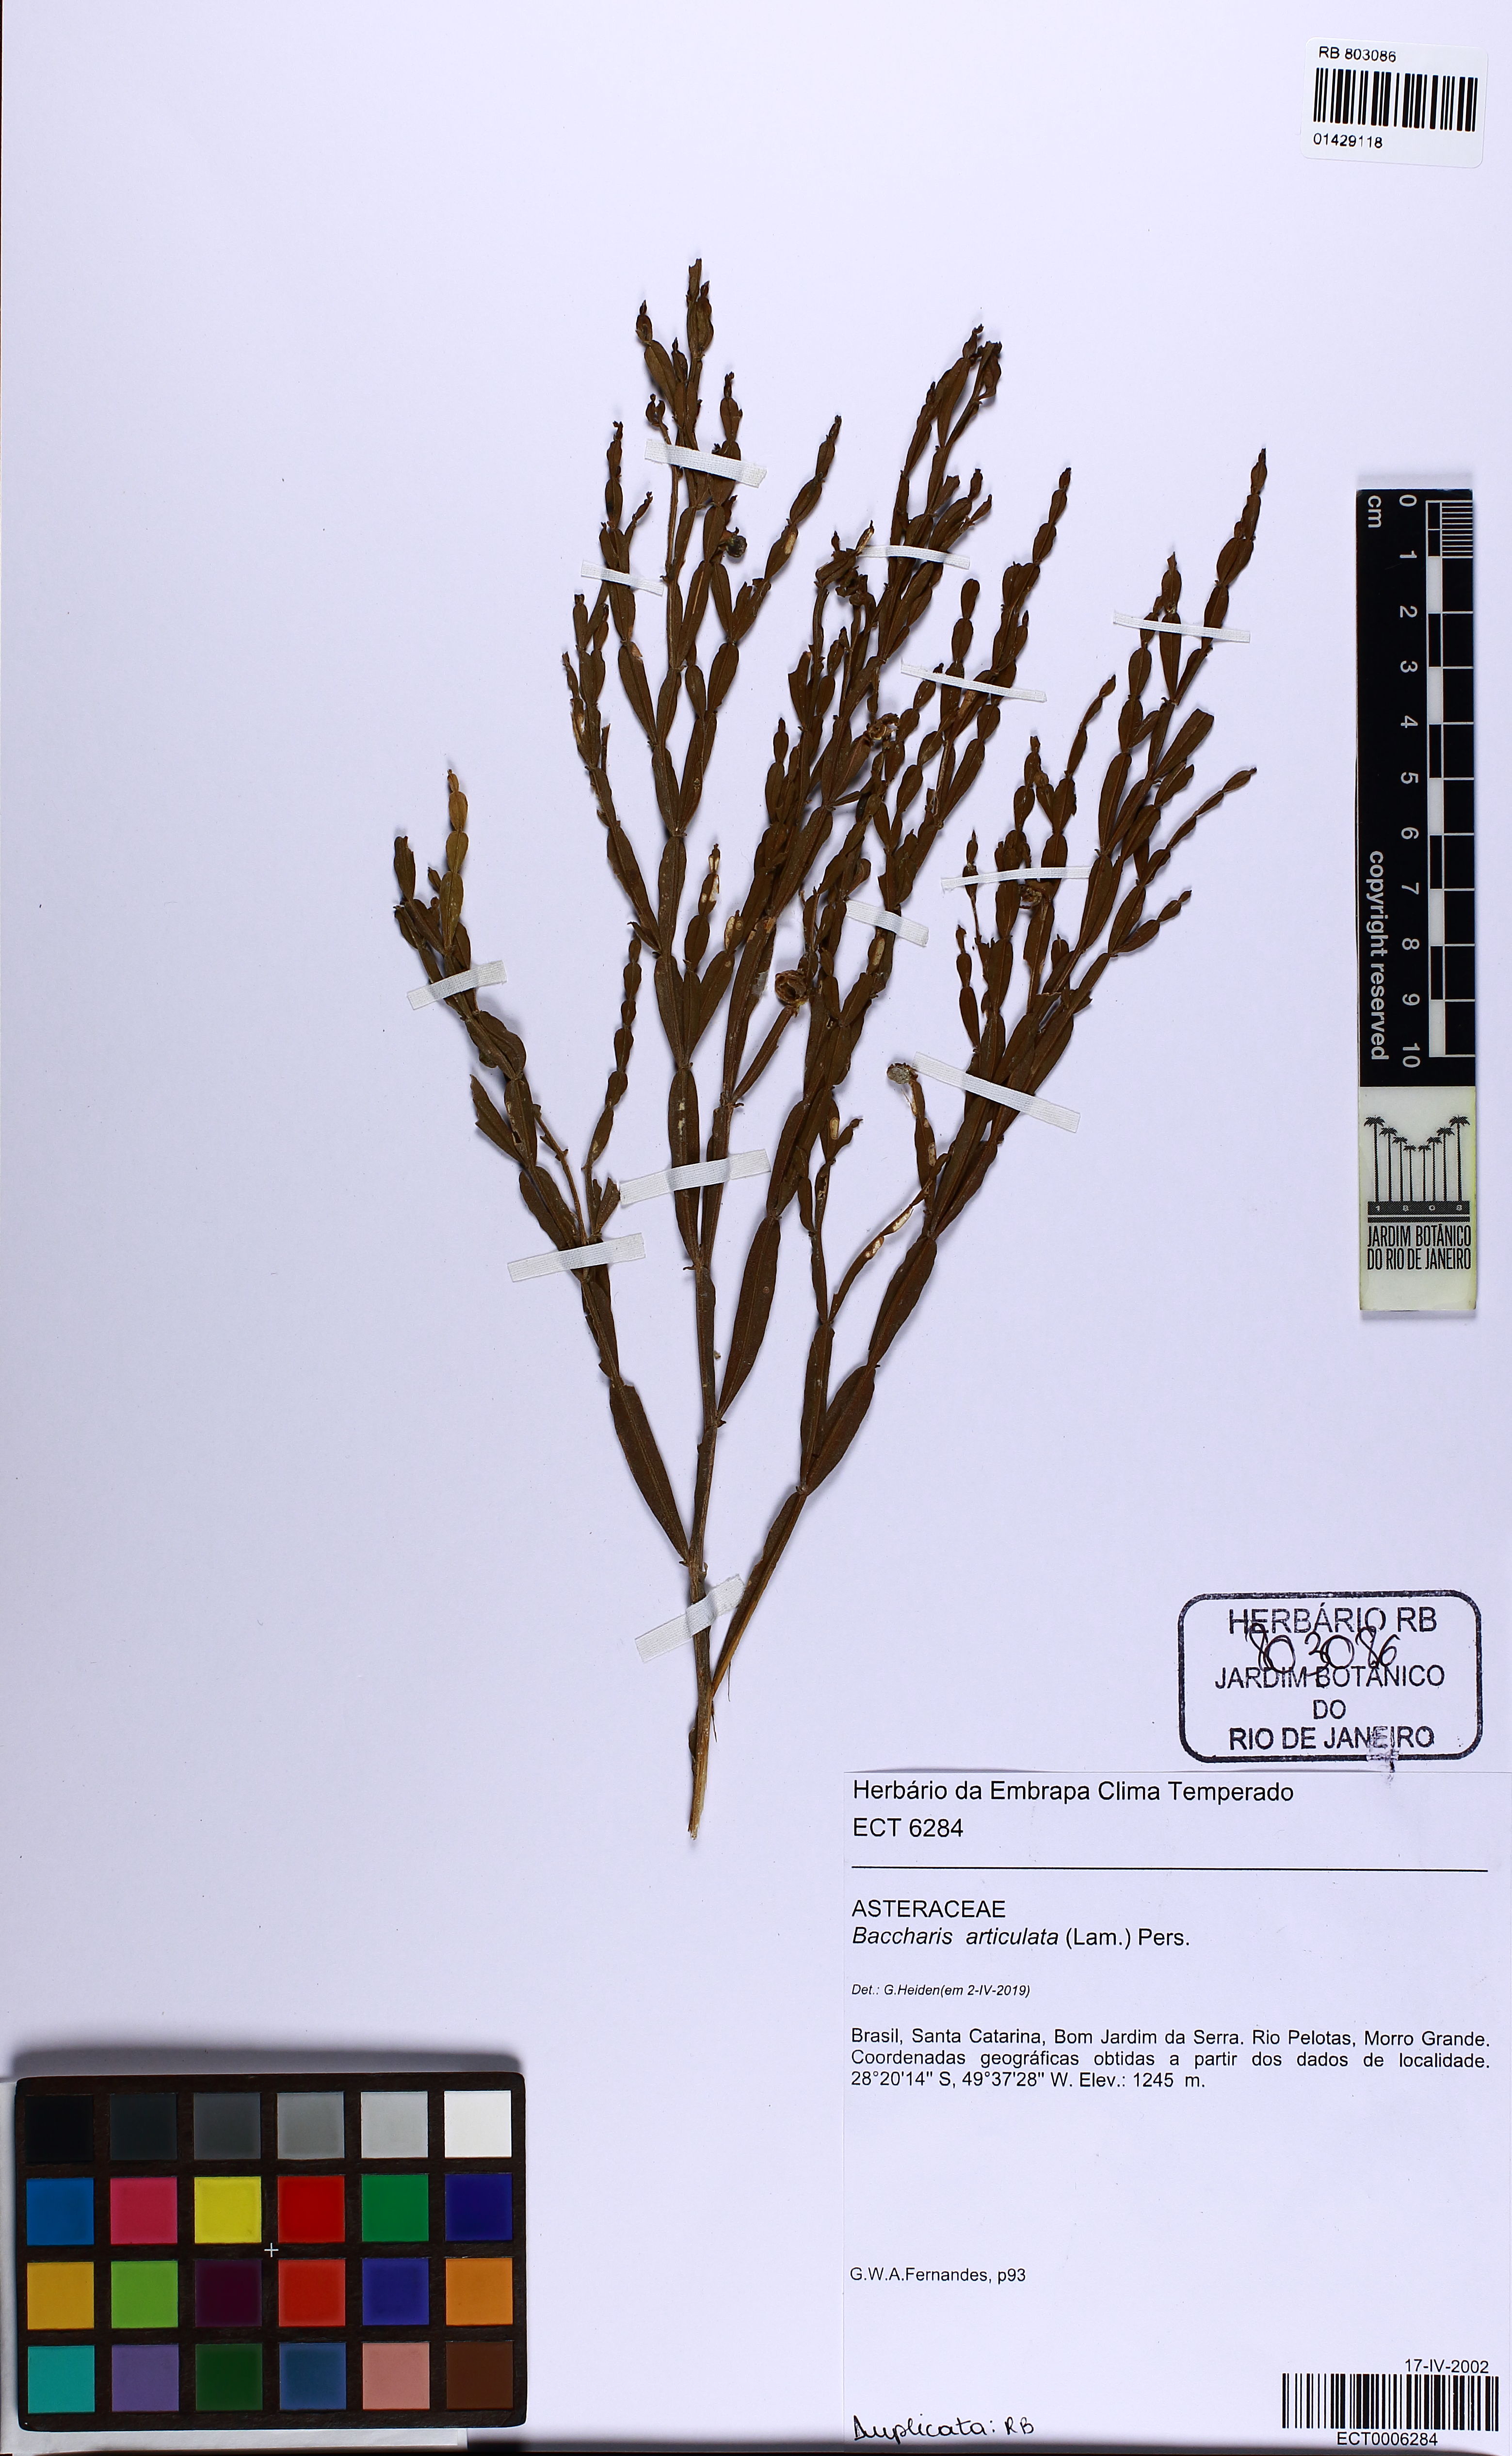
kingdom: Plantae
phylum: Tracheophyta
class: Magnoliopsida
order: Asterales
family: Asteraceae
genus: Baccharis
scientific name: Baccharis articulata
